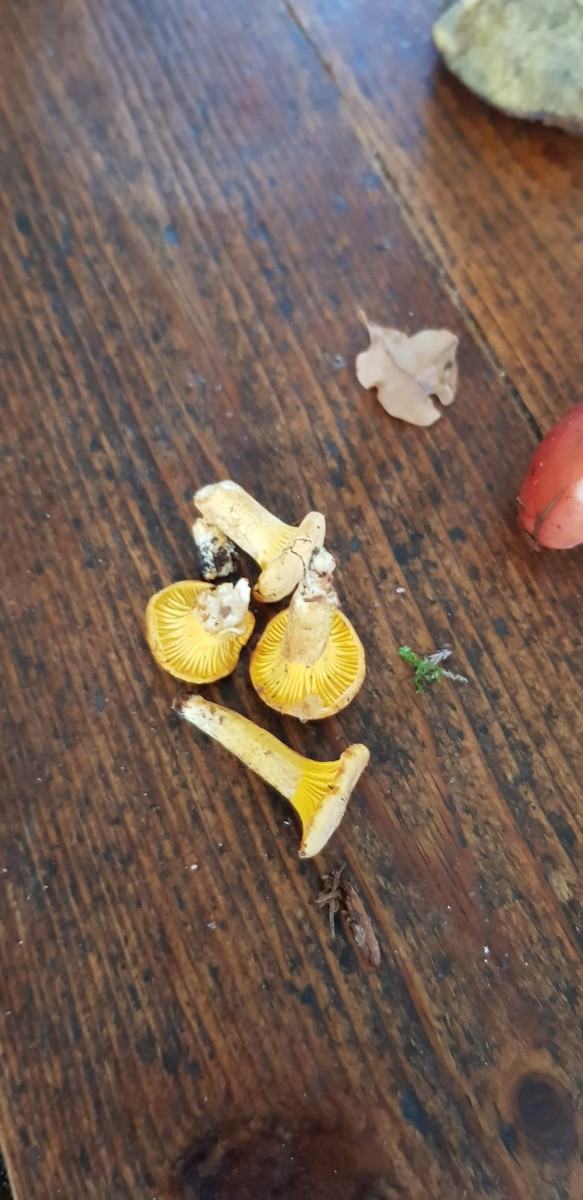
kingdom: Fungi
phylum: Basidiomycota
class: Agaricomycetes
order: Cantharellales
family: Hydnaceae
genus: Cantharellus
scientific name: Cantharellus
